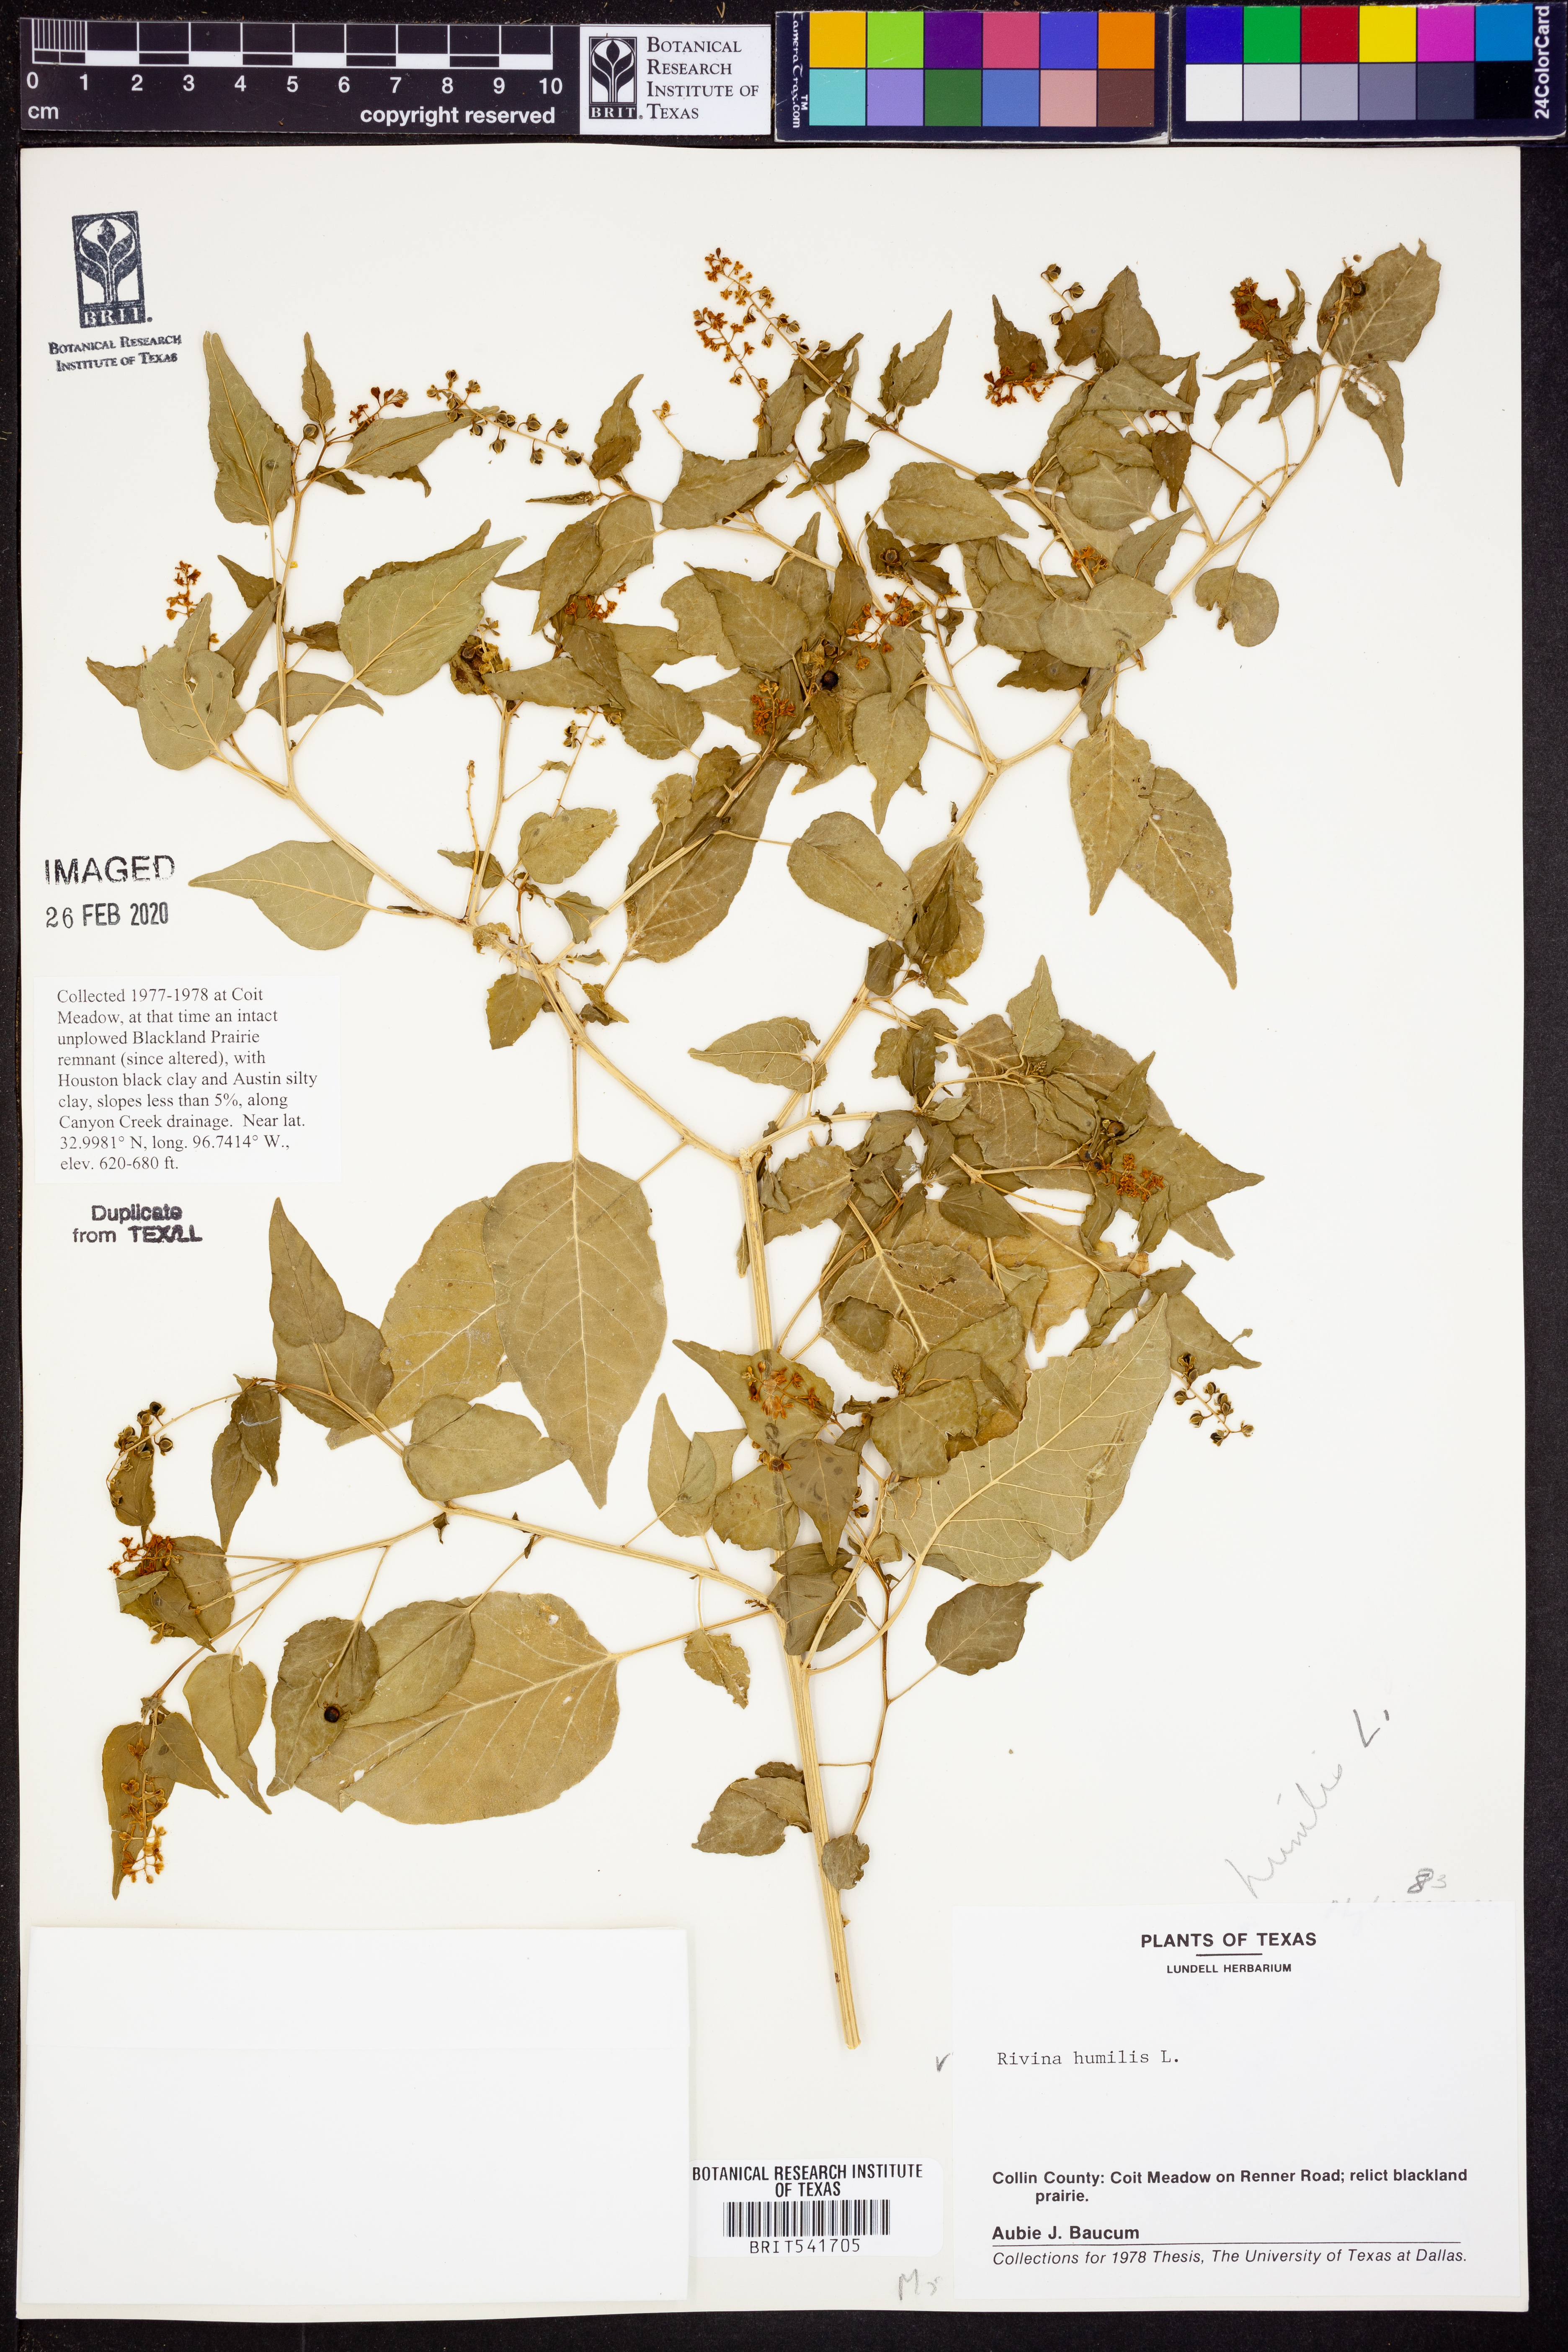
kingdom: Plantae
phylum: Tracheophyta
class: Magnoliopsida
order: Caryophyllales
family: Phytolaccaceae
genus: Rivina
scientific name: Rivina humilis
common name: Rougeplant
